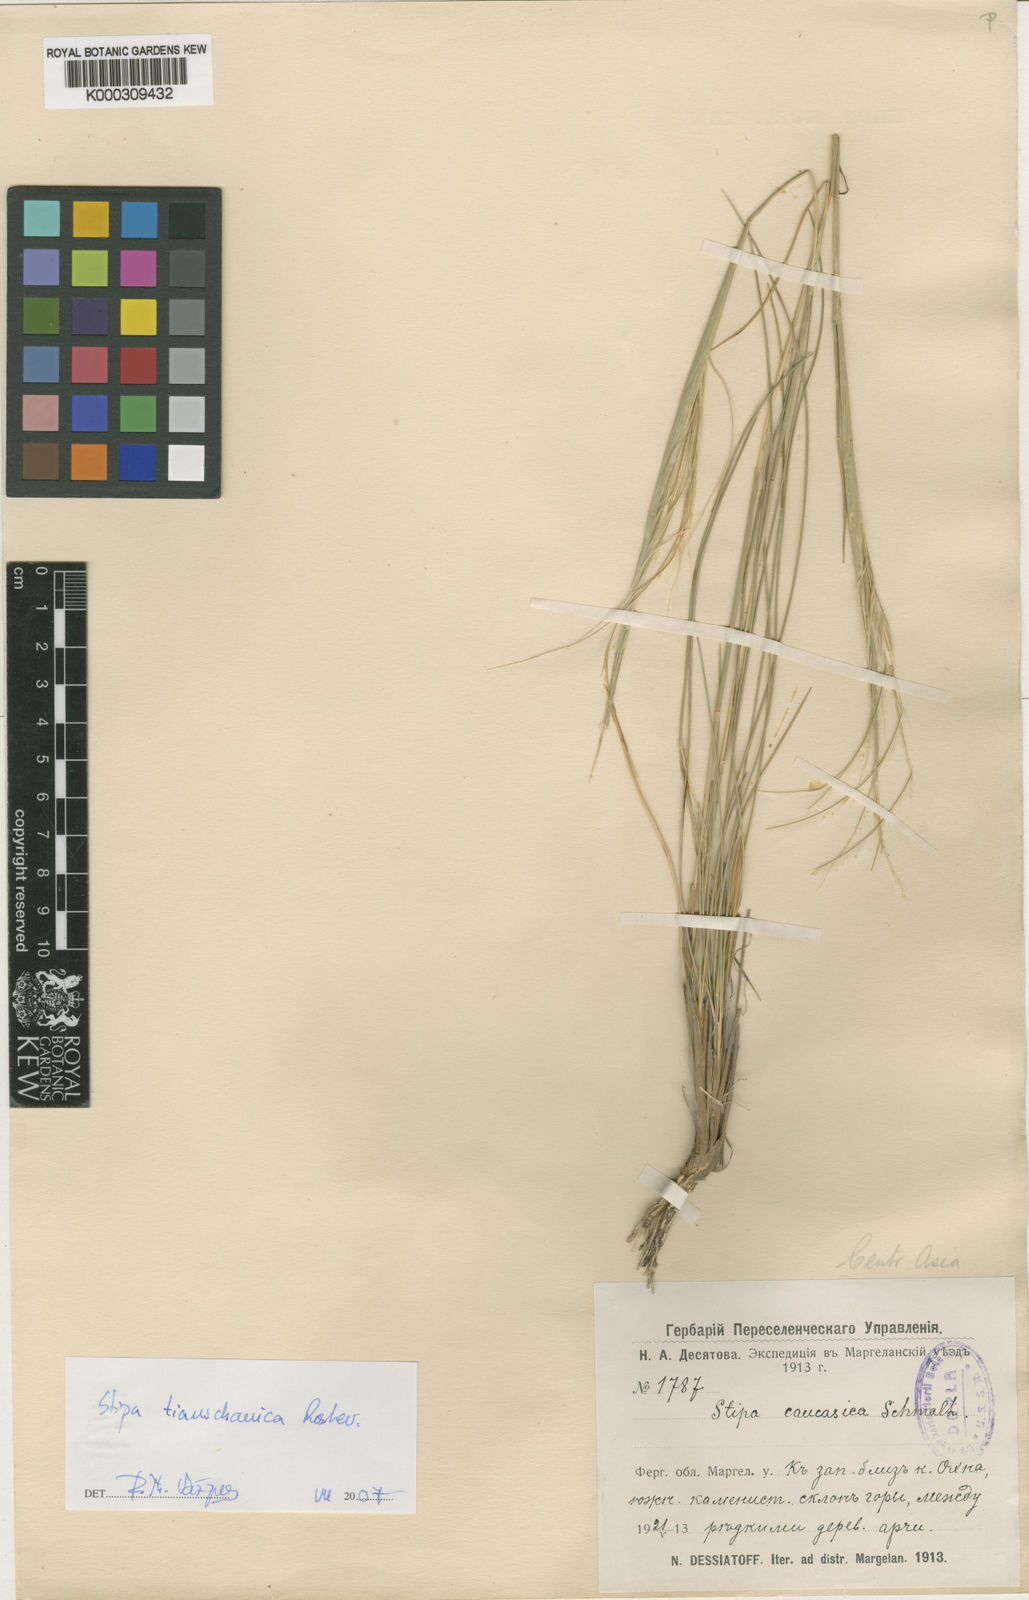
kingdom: Plantae
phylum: Tracheophyta
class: Liliopsida
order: Poales
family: Poaceae
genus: Stipa
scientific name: Stipa caucasica
